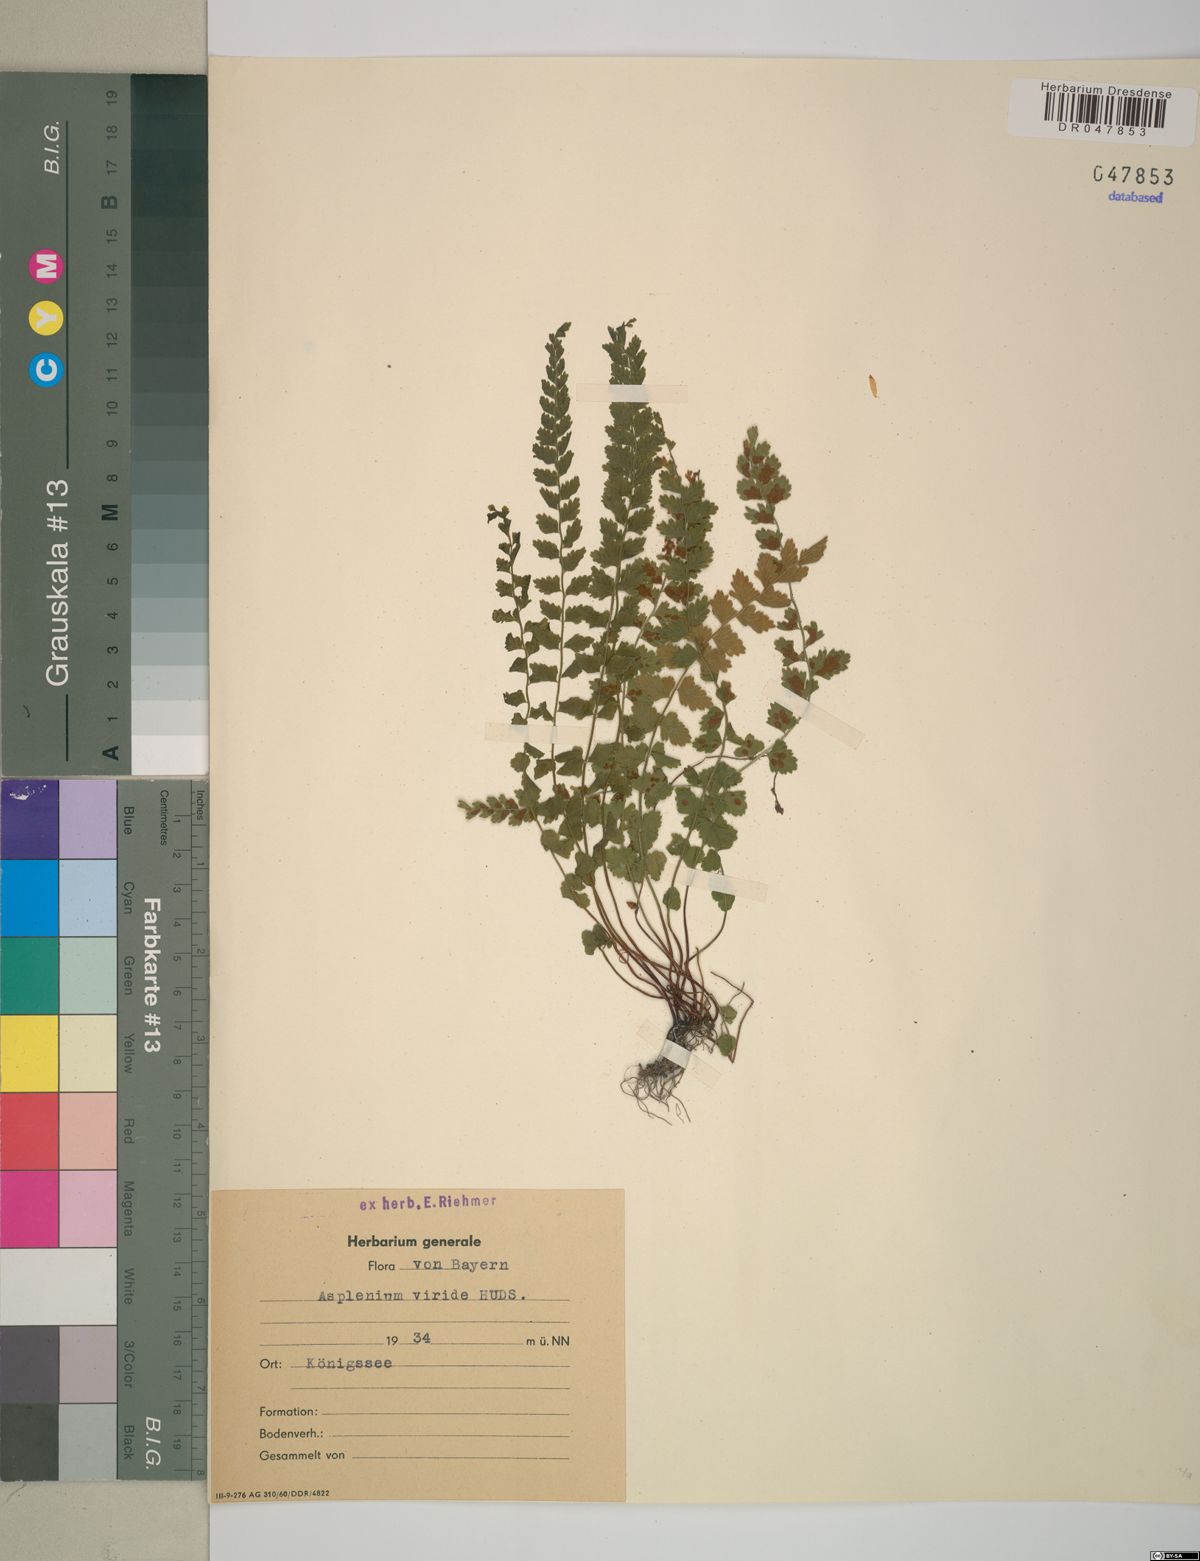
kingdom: Plantae
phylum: Tracheophyta
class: Polypodiopsida
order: Polypodiales
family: Aspleniaceae
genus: Asplenium
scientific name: Asplenium viride
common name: Green spleenwort
